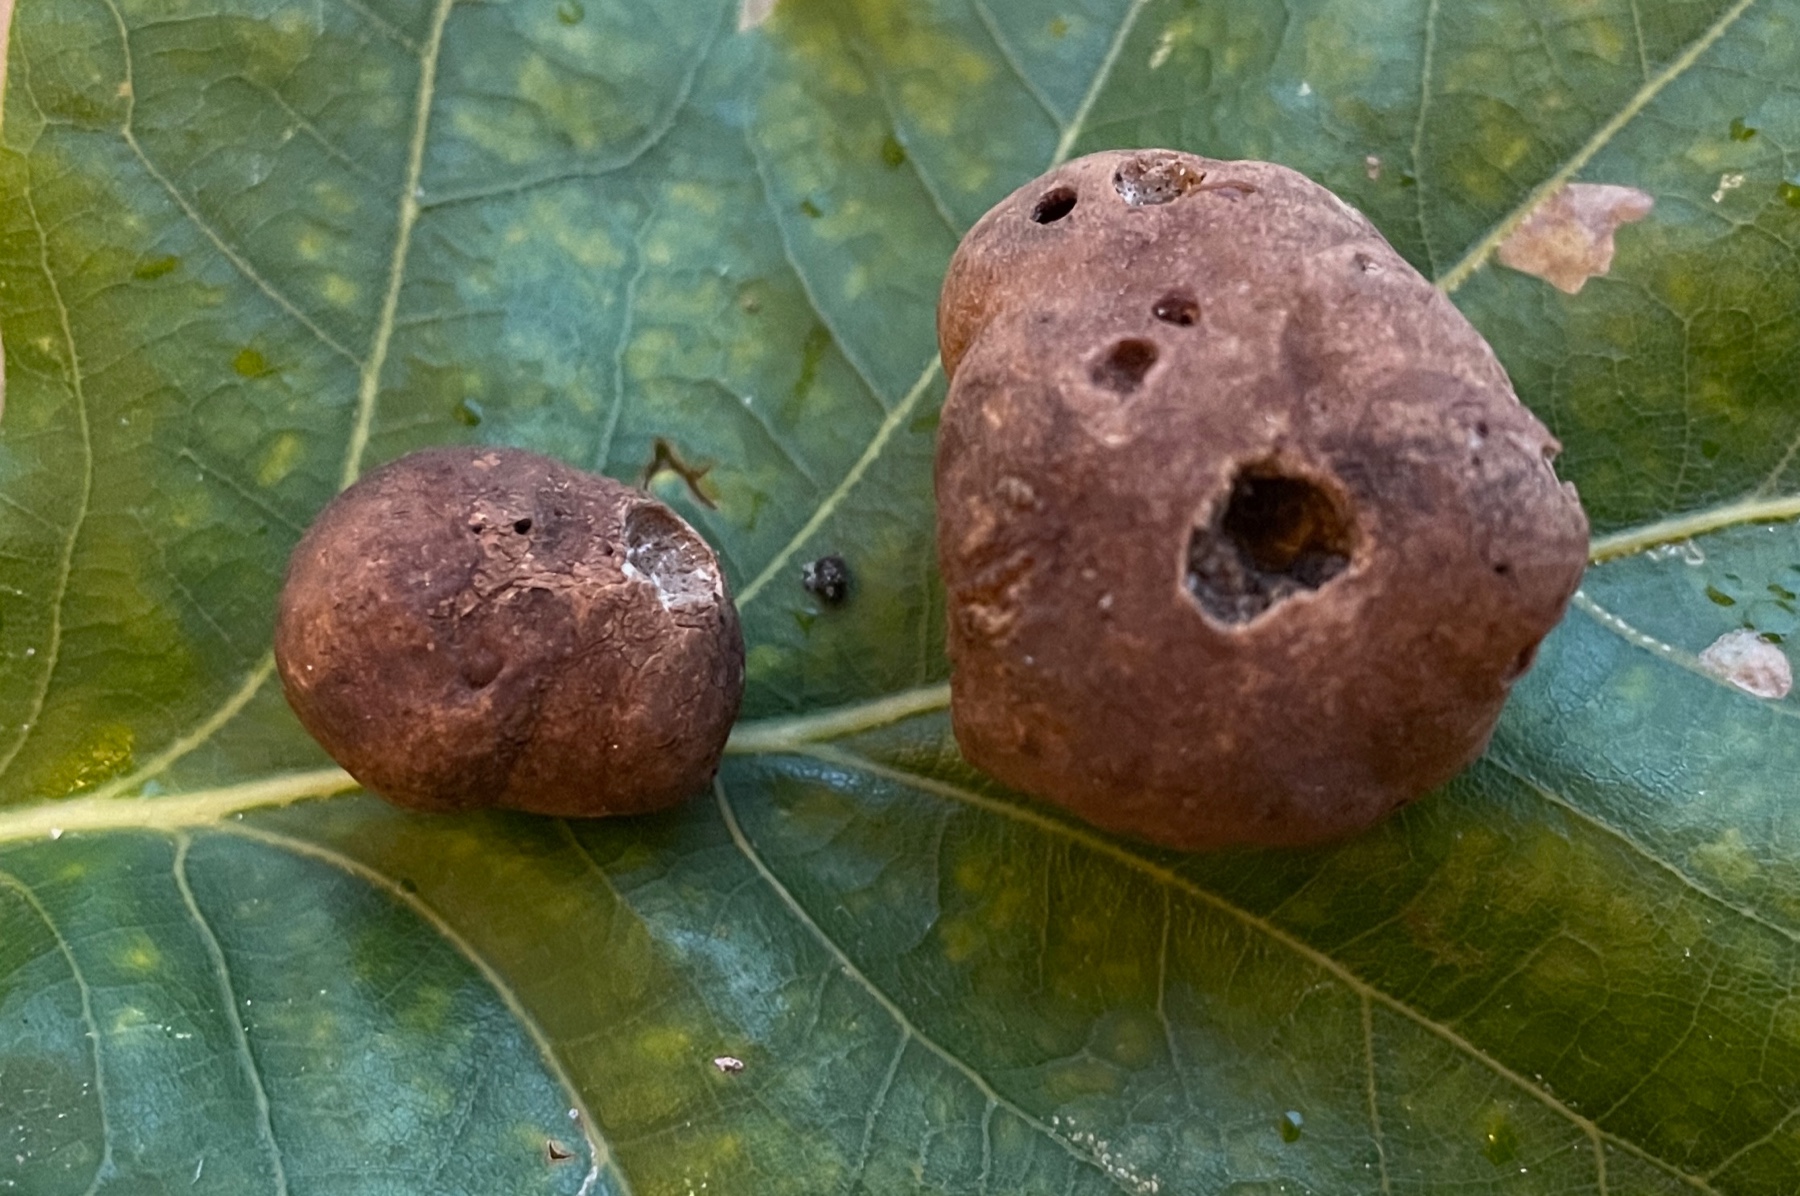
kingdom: Fungi
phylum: Ascomycota
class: Pezizomycetes
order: Pezizales
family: Tuberaceae
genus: Tuber
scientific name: Tuber rufum
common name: rødbrun trøffel
